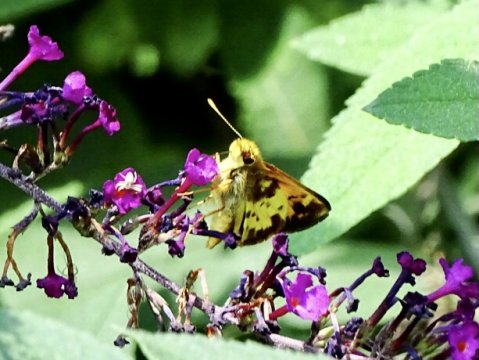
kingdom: Animalia
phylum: Arthropoda
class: Insecta
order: Lepidoptera
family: Hesperiidae
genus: Lon
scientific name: Lon zabulon
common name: Zabulon Skipper
